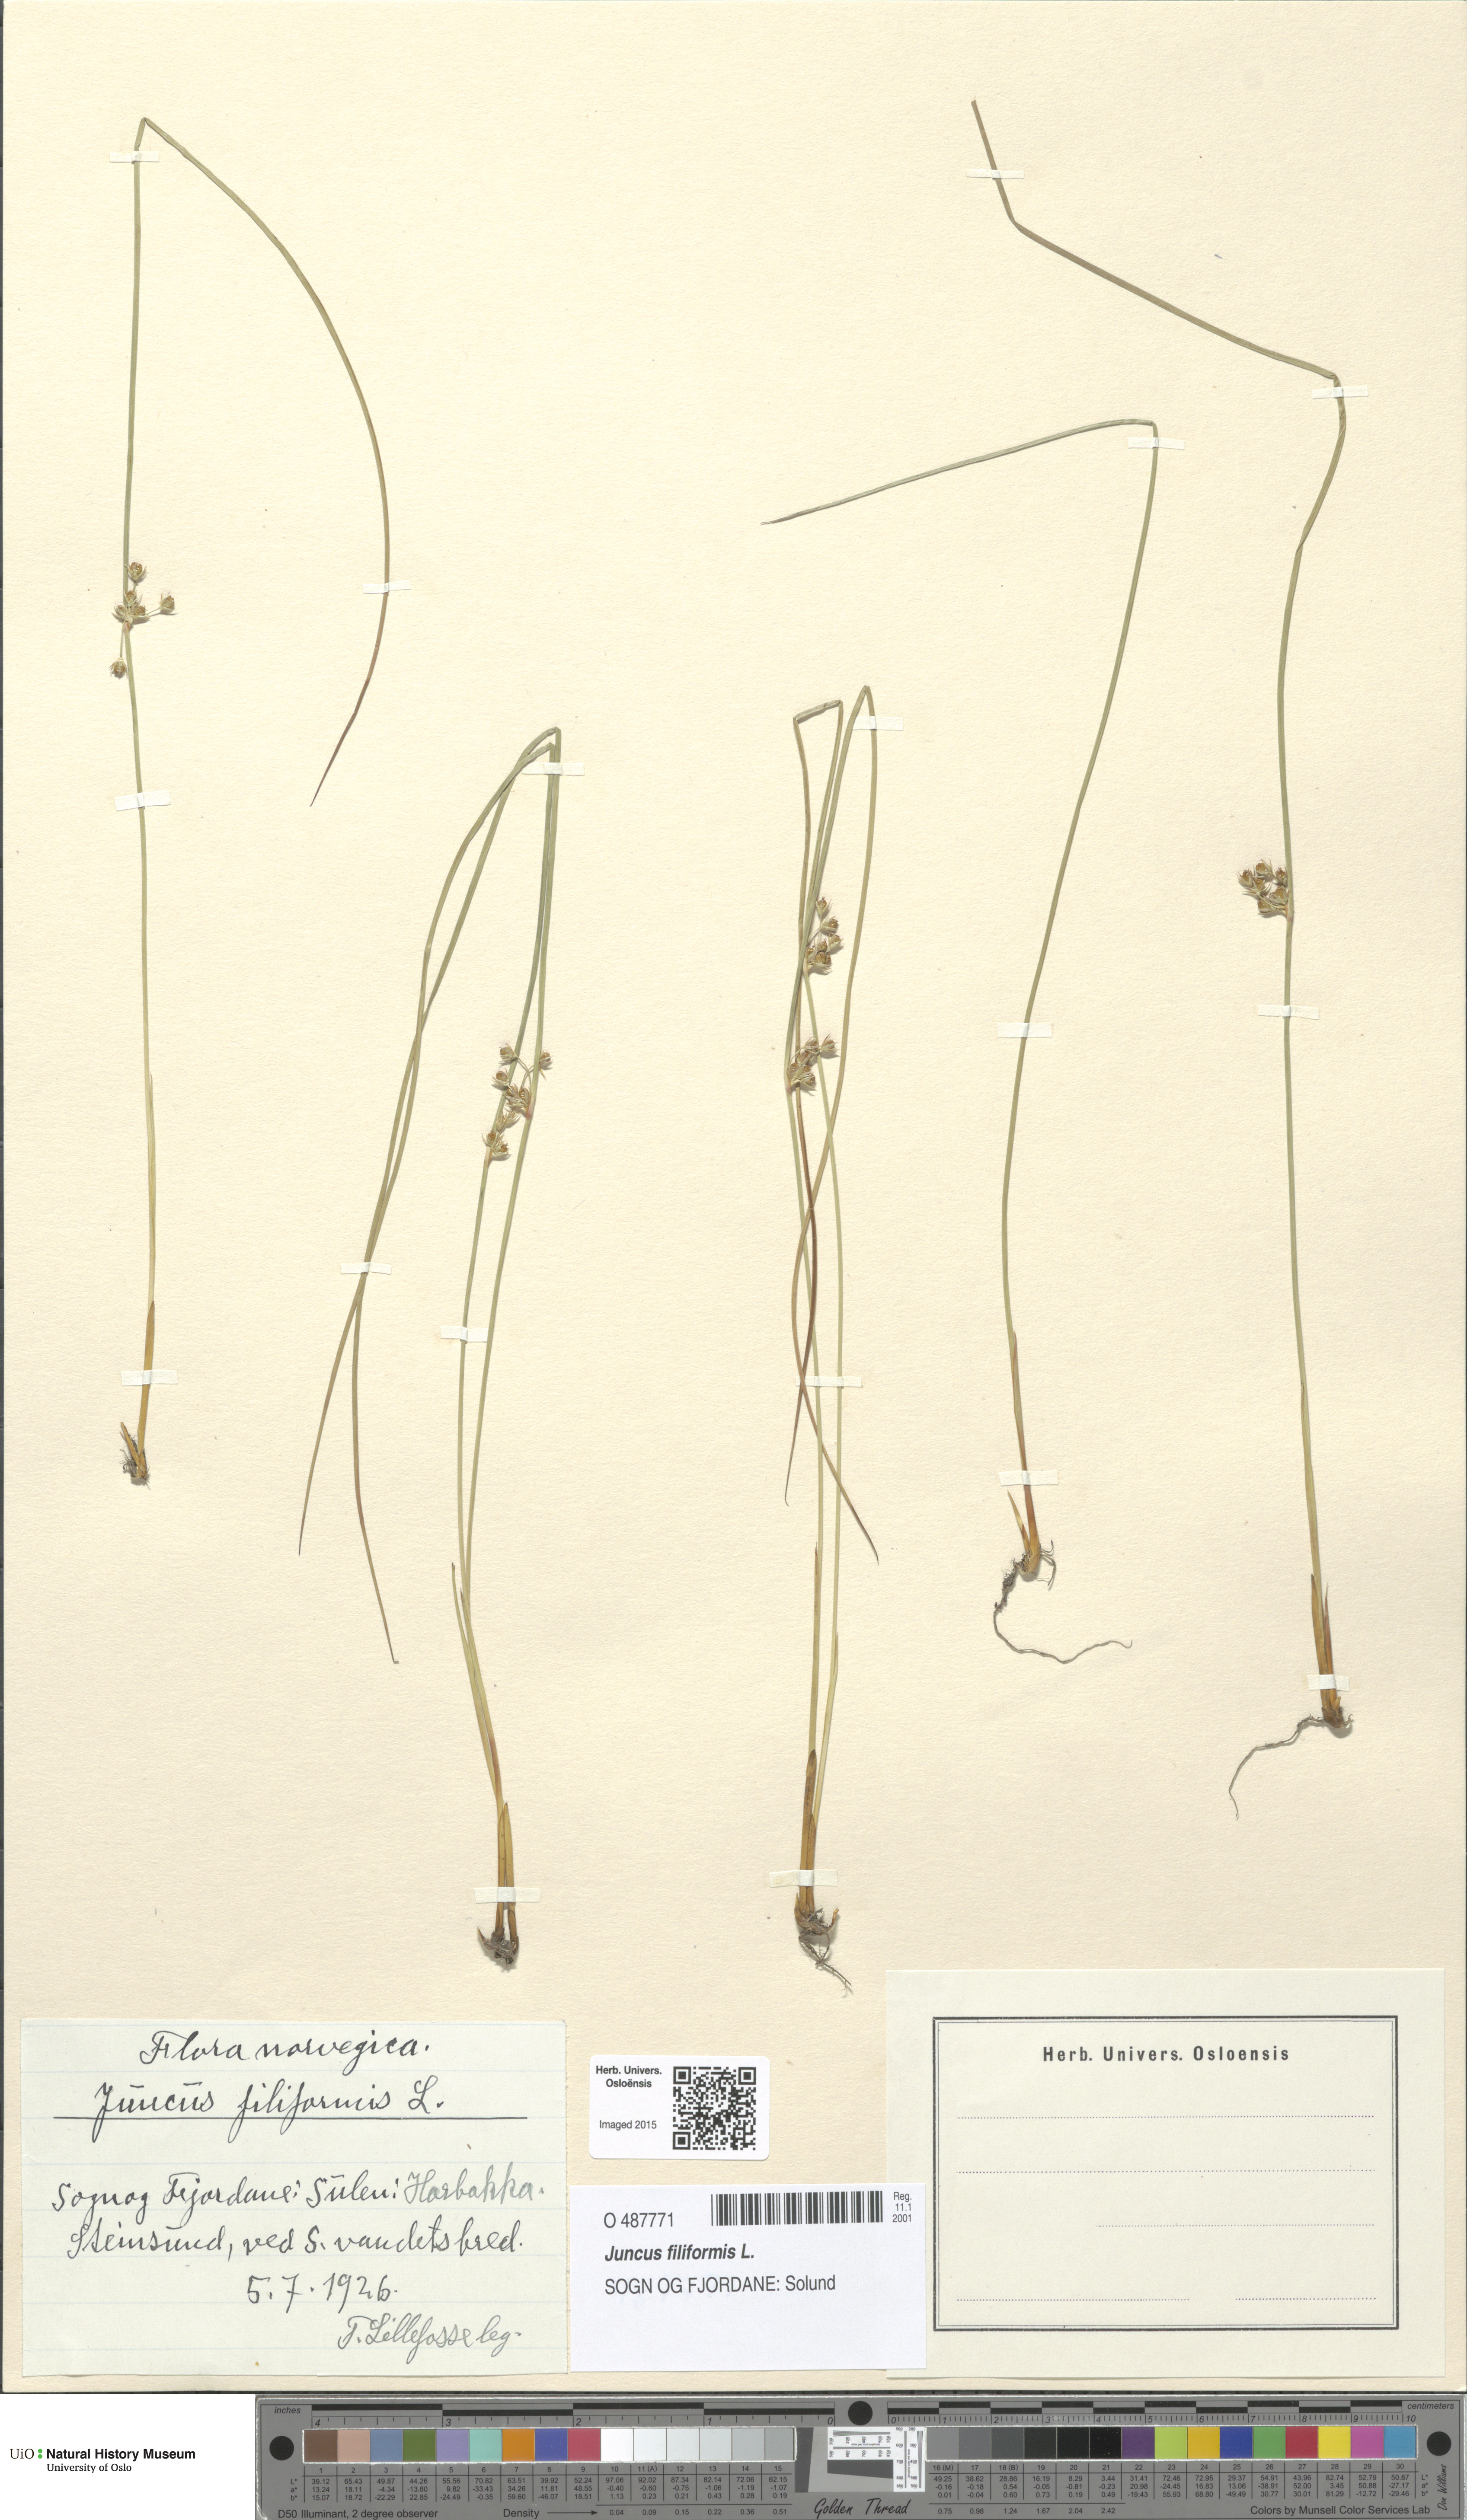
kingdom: Plantae
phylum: Tracheophyta
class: Liliopsida
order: Poales
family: Juncaceae
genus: Juncus
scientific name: Juncus filiformis
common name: Thread rush
